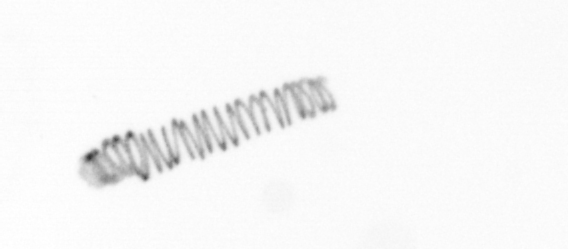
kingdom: Chromista
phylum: Ochrophyta
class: Bacillariophyceae
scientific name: Bacillariophyceae
